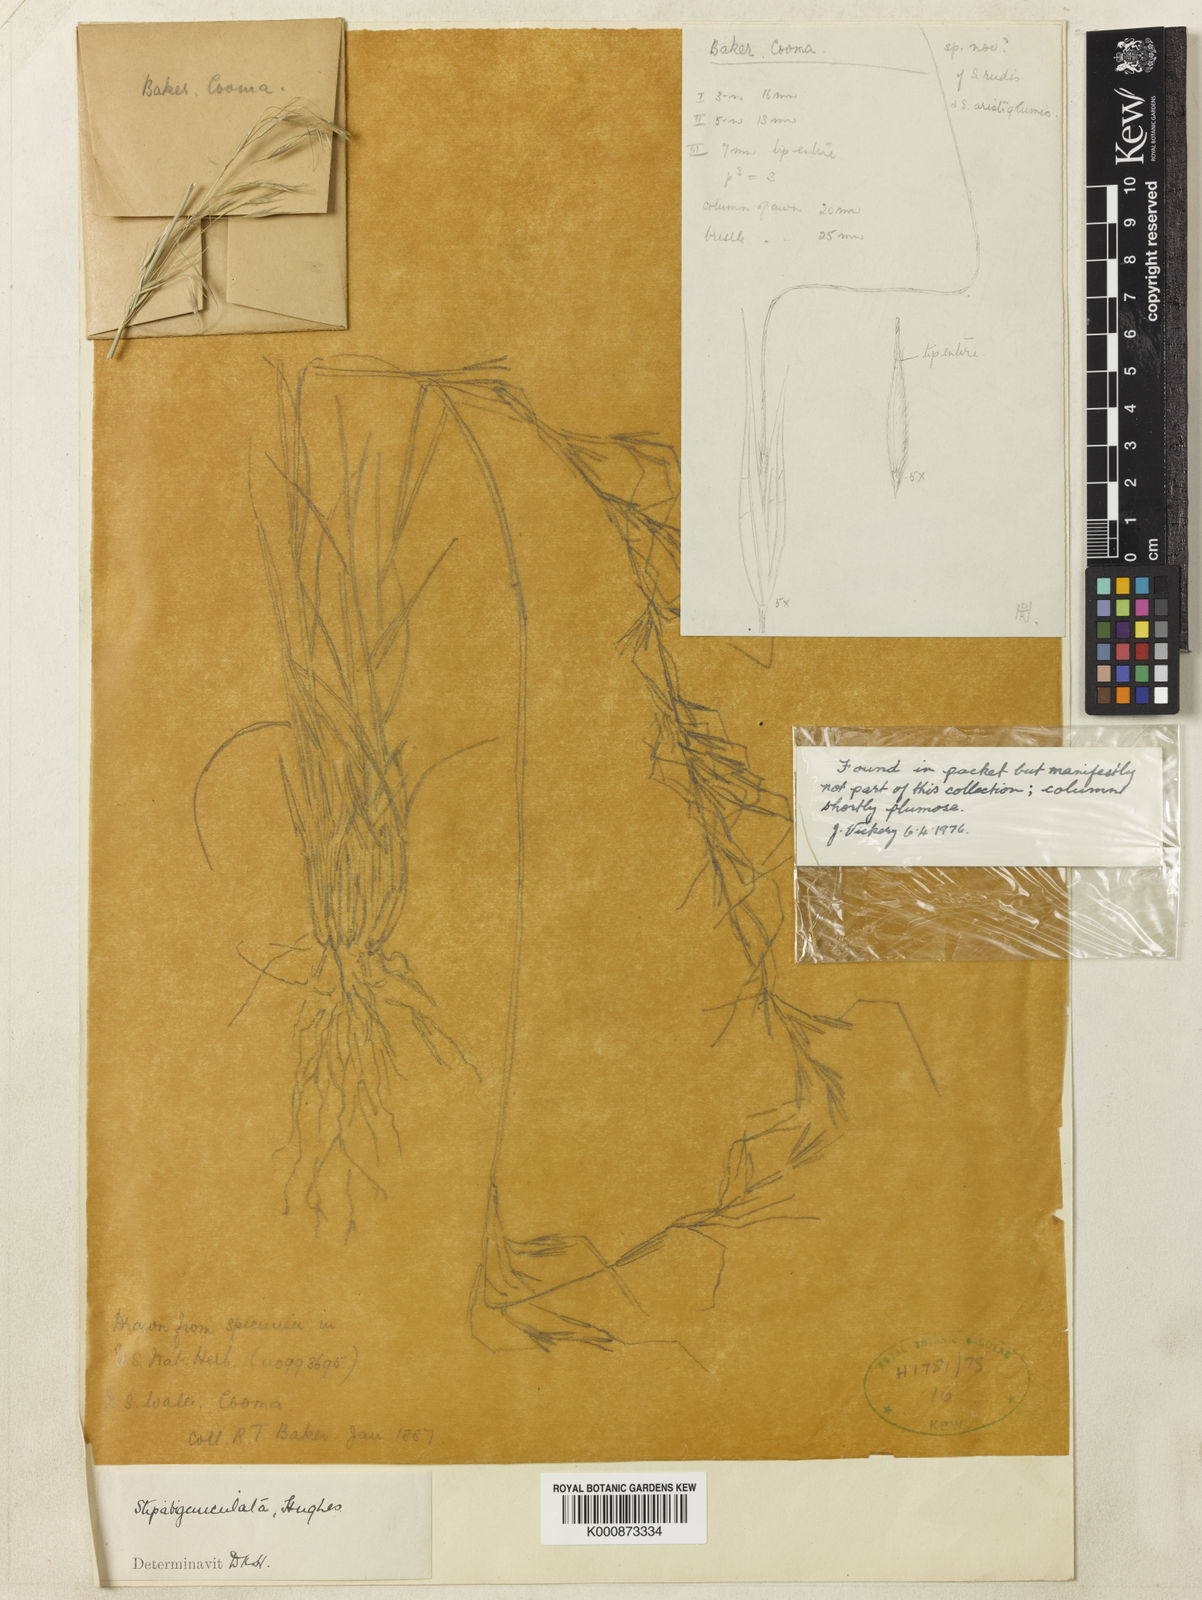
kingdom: Plantae
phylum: Tracheophyta
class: Liliopsida
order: Poales
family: Poaceae
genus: Austrostipa
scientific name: Austrostipa bigeniculata
